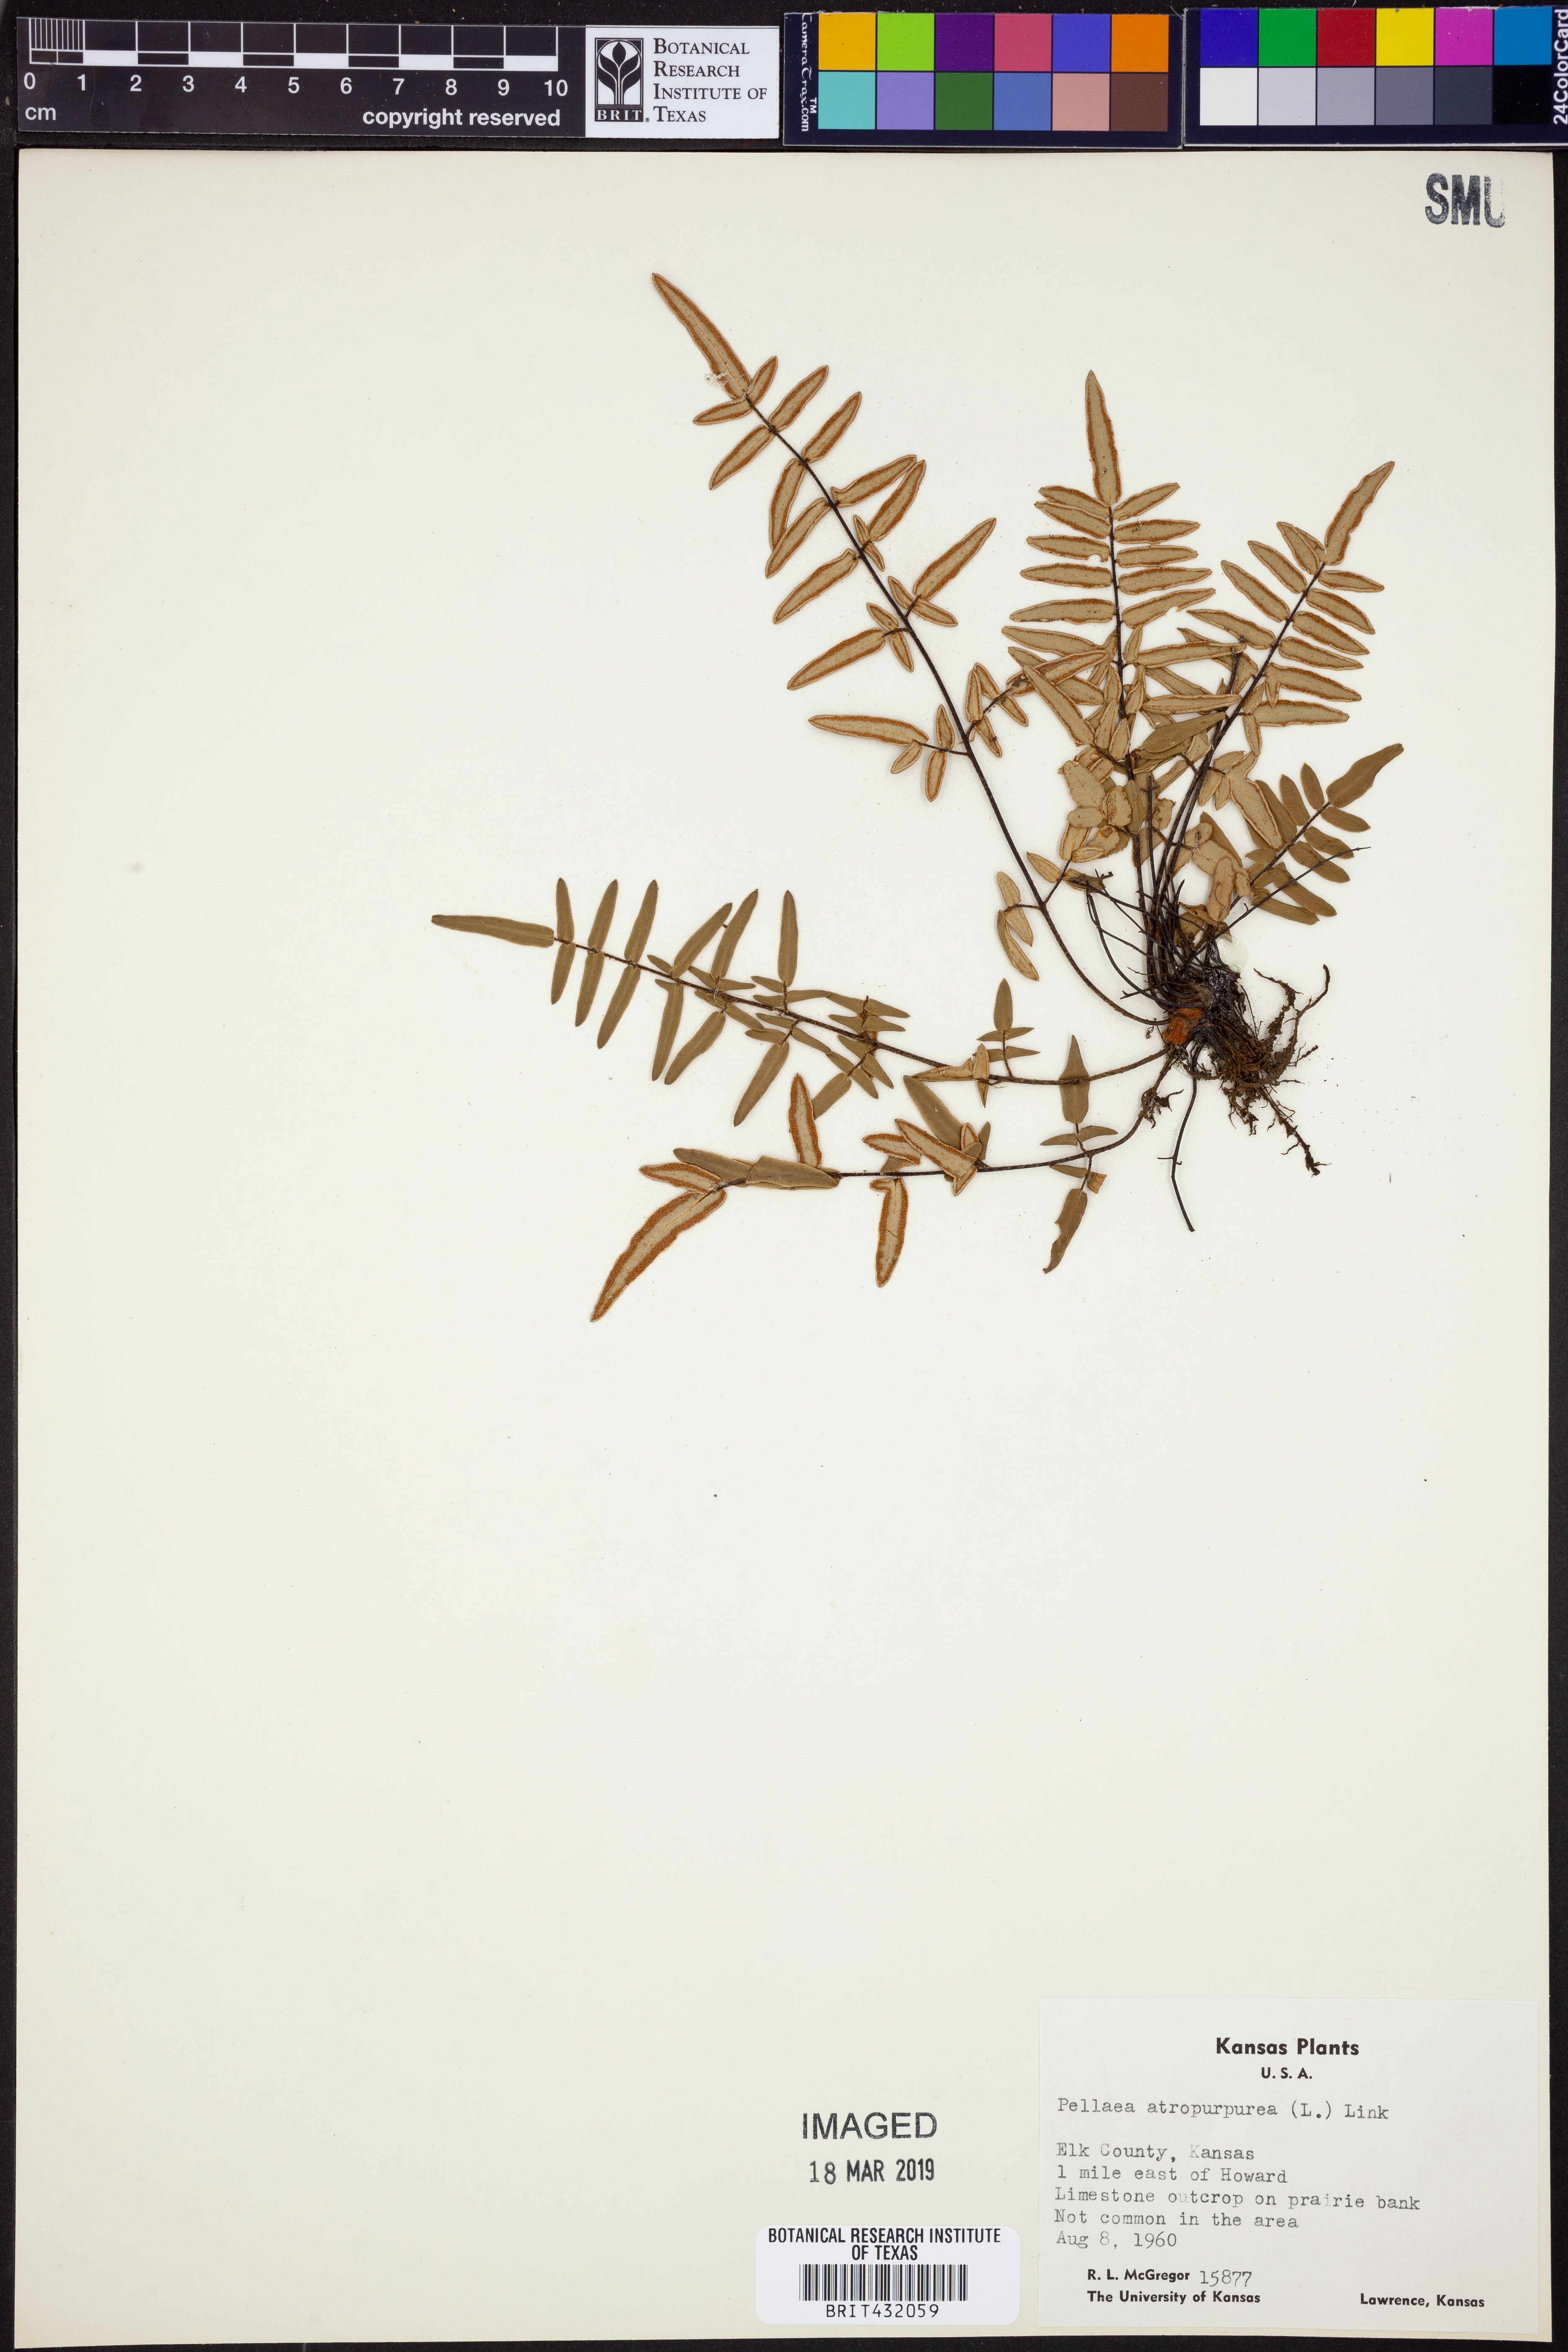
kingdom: Plantae
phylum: Tracheophyta
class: Polypodiopsida
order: Polypodiales
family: Pteridaceae
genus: Pellaea
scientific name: Pellaea atropurpurea
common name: Hairy cliffbrake
